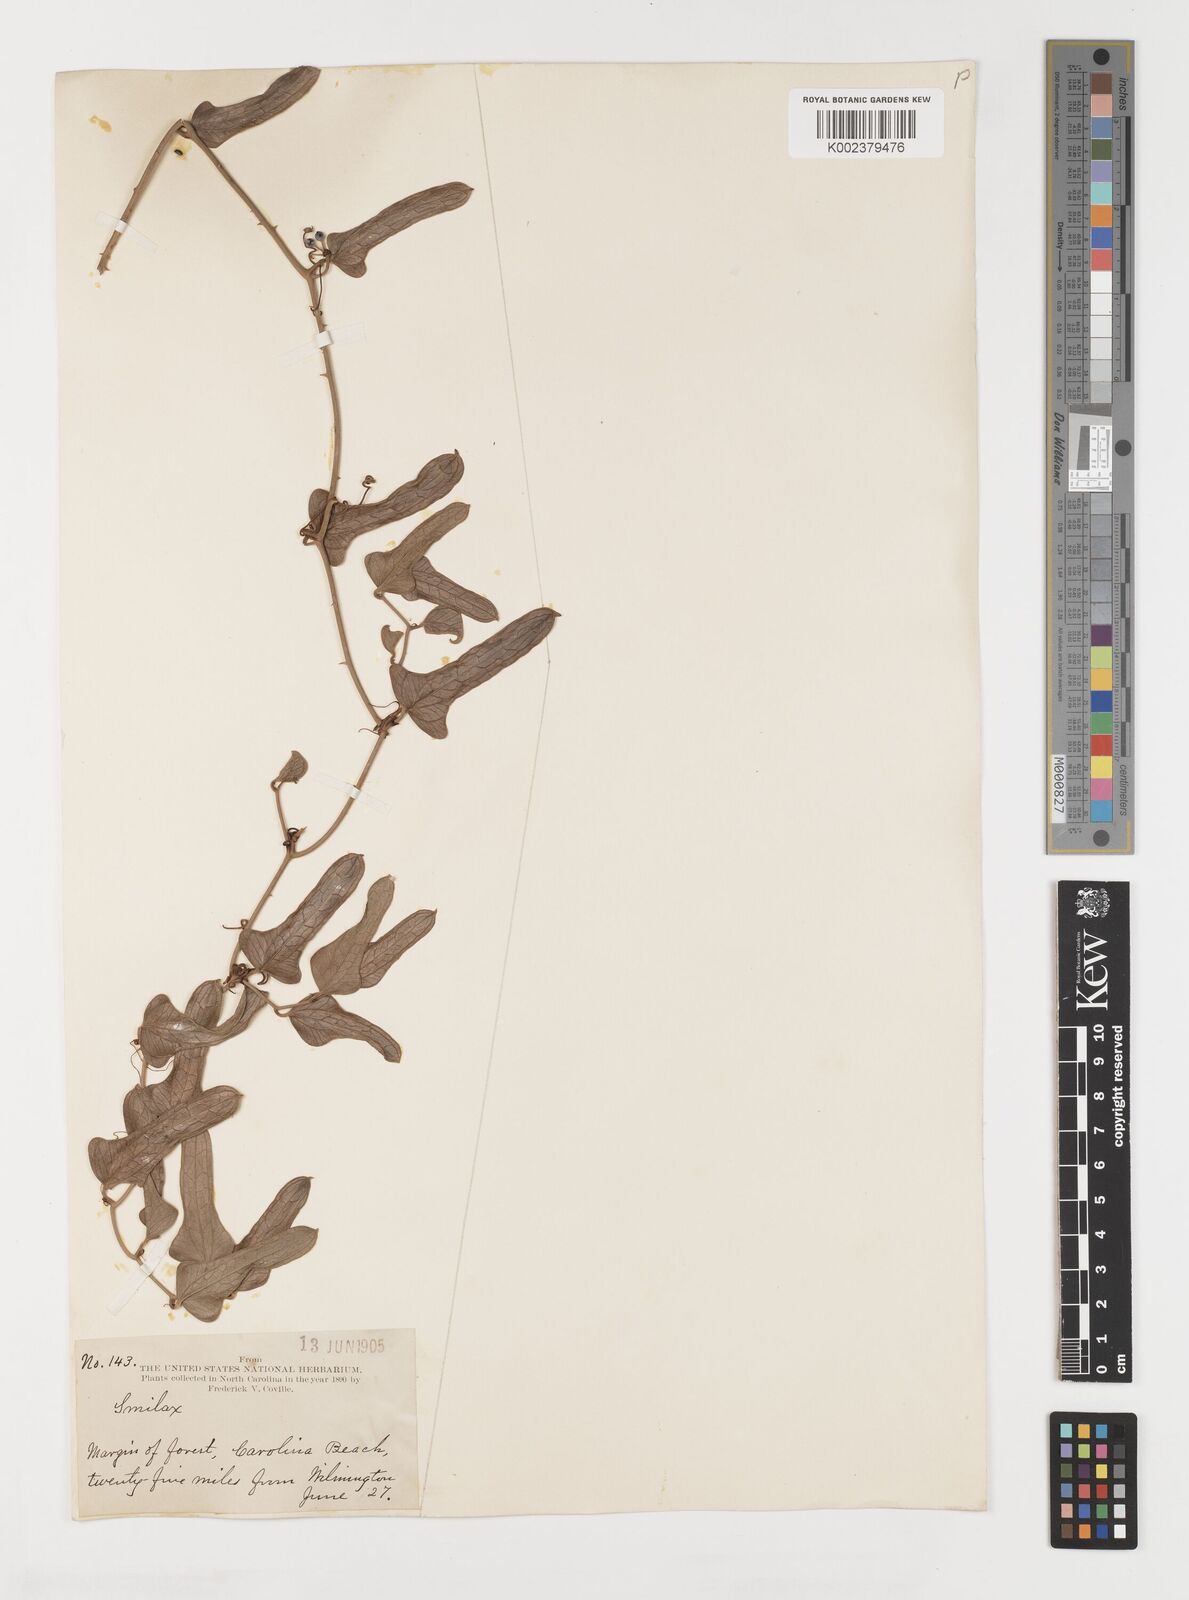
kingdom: Plantae
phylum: Tracheophyta
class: Liliopsida
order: Liliales
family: Smilacaceae
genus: Smilax
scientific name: Smilax
